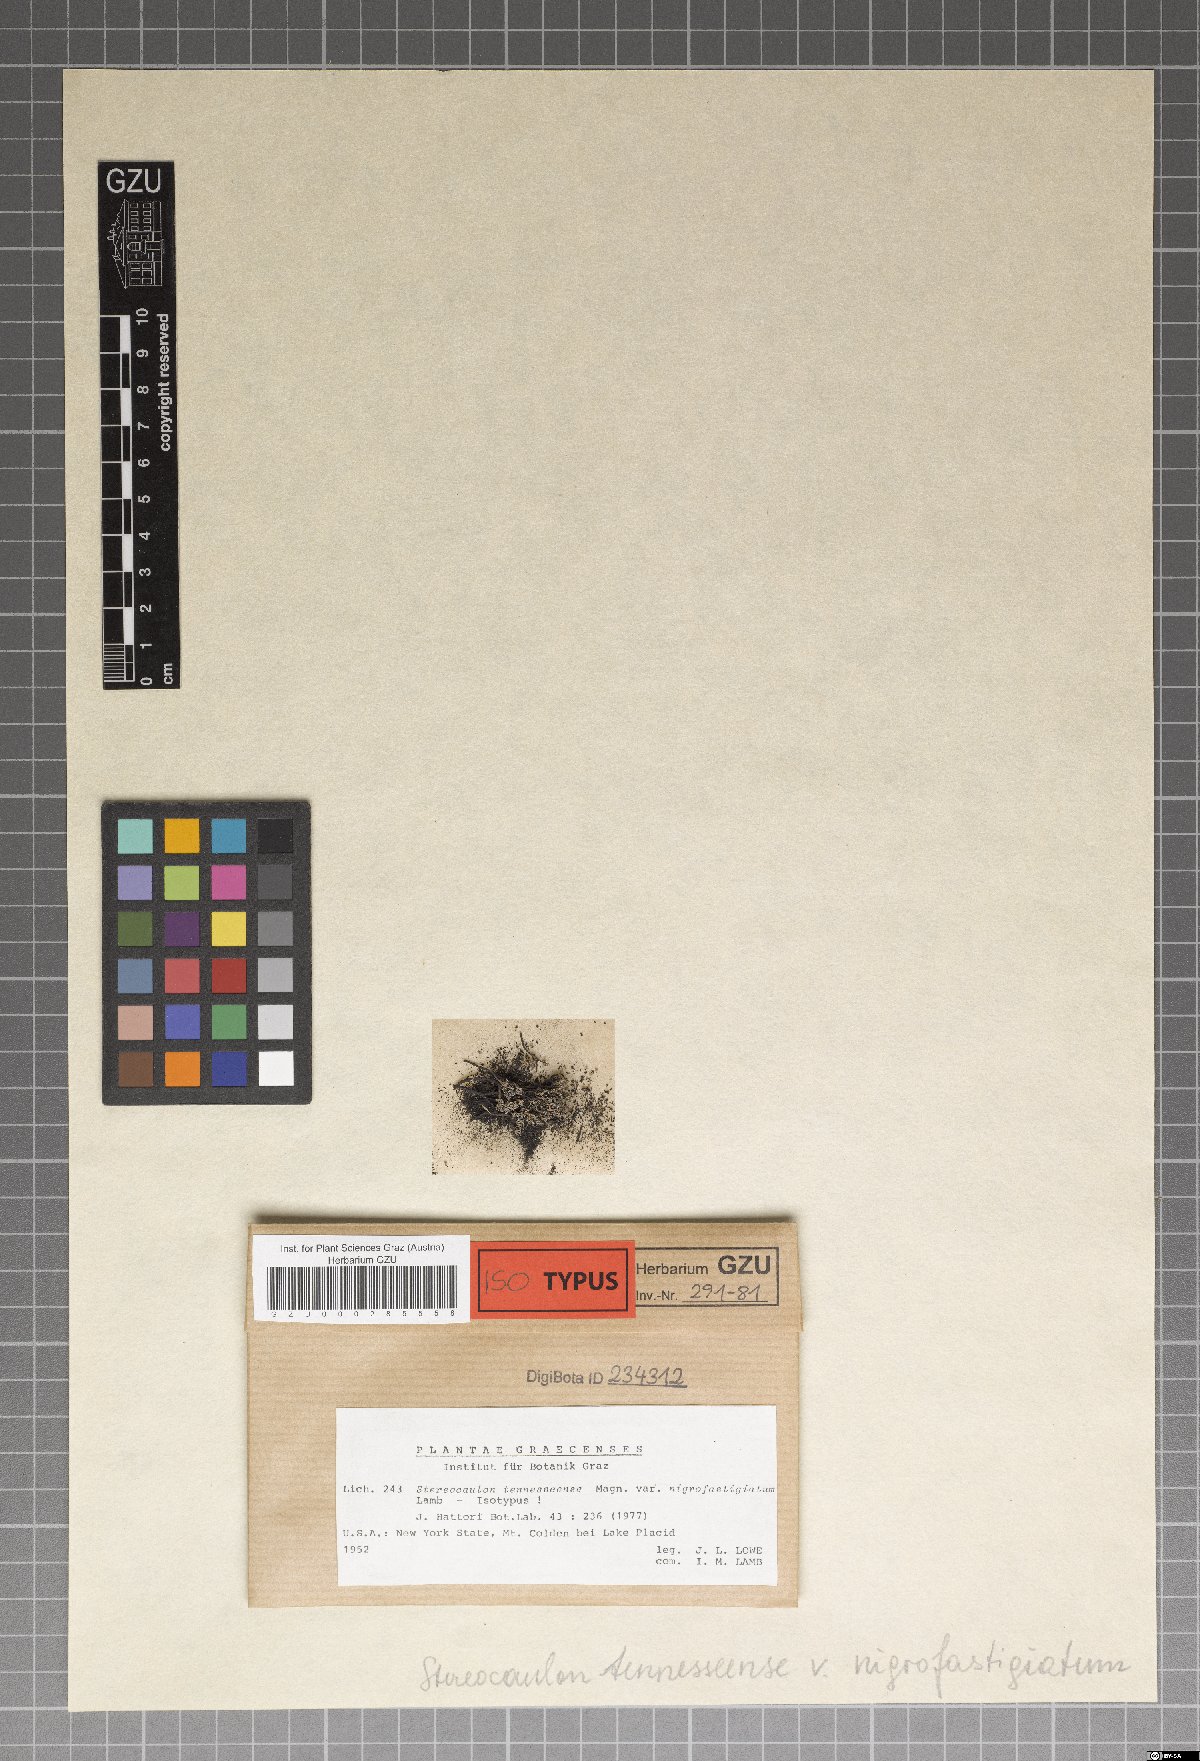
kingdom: Fungi
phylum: Ascomycota
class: Lecanoromycetes
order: Lecanorales
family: Stereocaulaceae
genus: Stereocaulon
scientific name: Stereocaulon tennesseense
